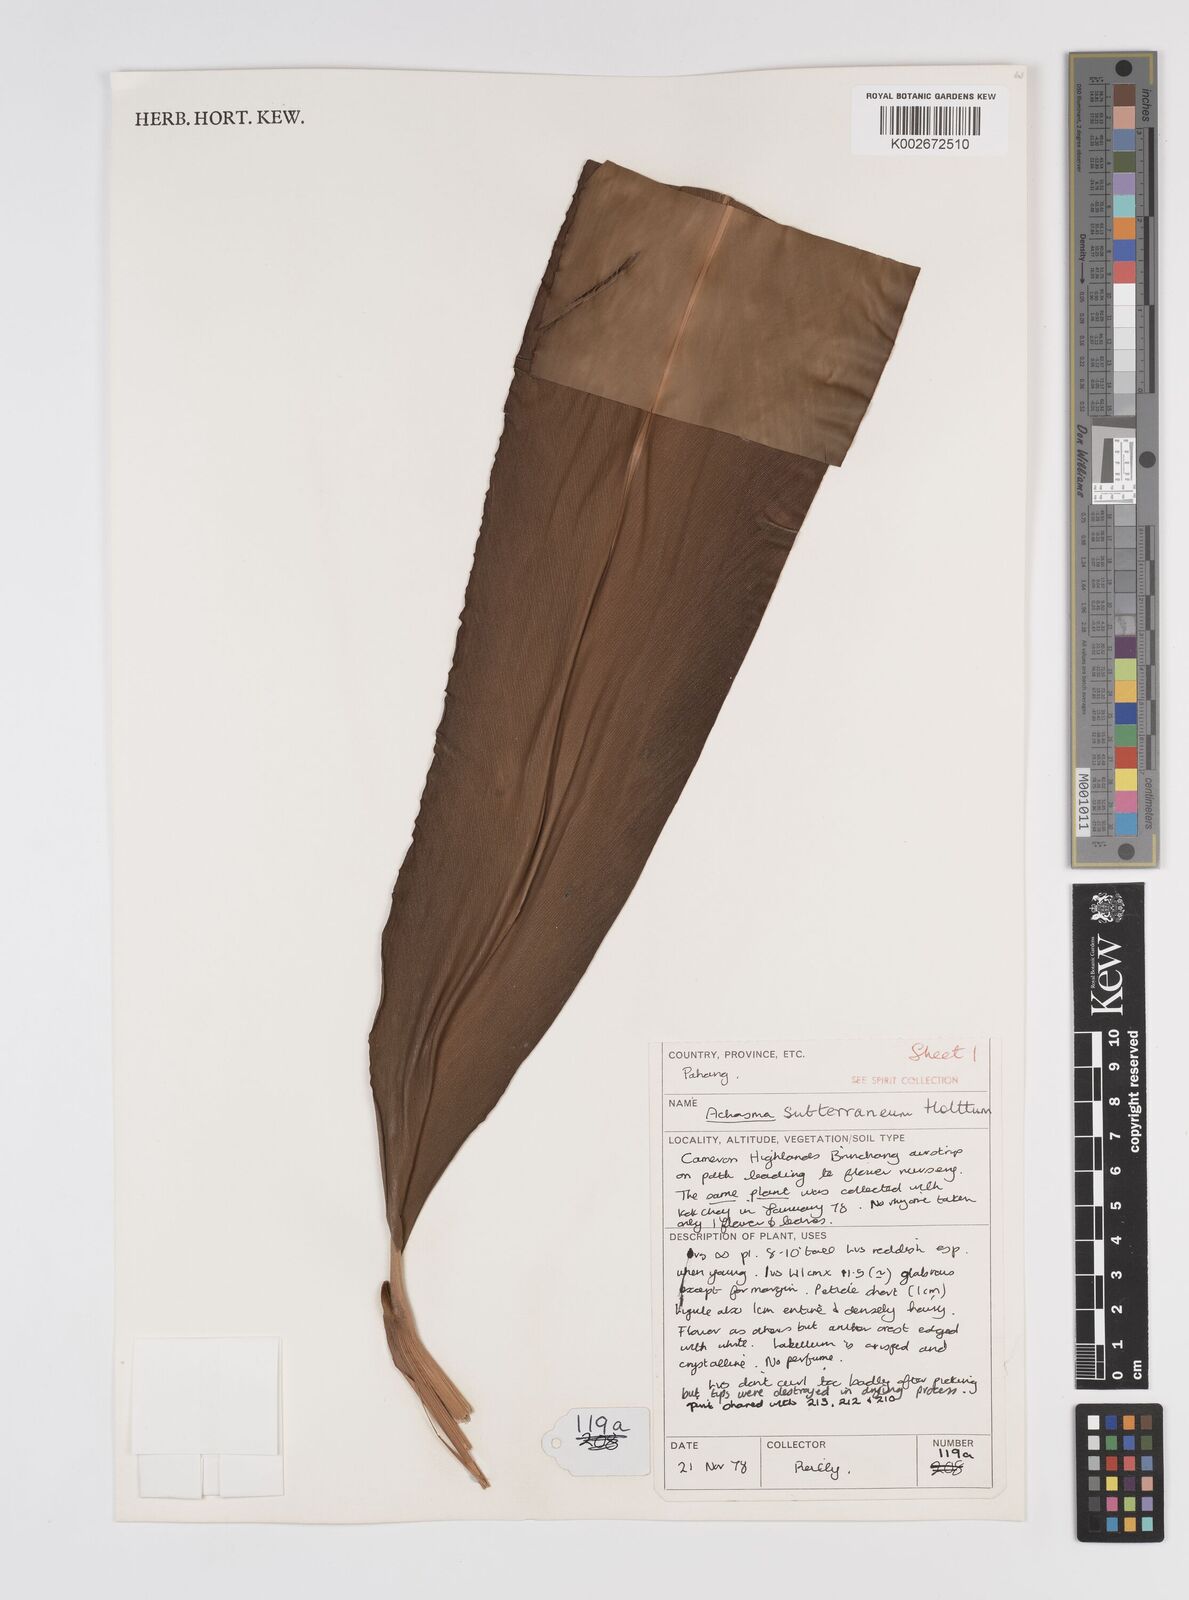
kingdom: Plantae
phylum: Tracheophyta
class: Liliopsida
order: Zingiberales
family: Zingiberaceae
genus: Etlingera
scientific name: Etlingera subterranea
